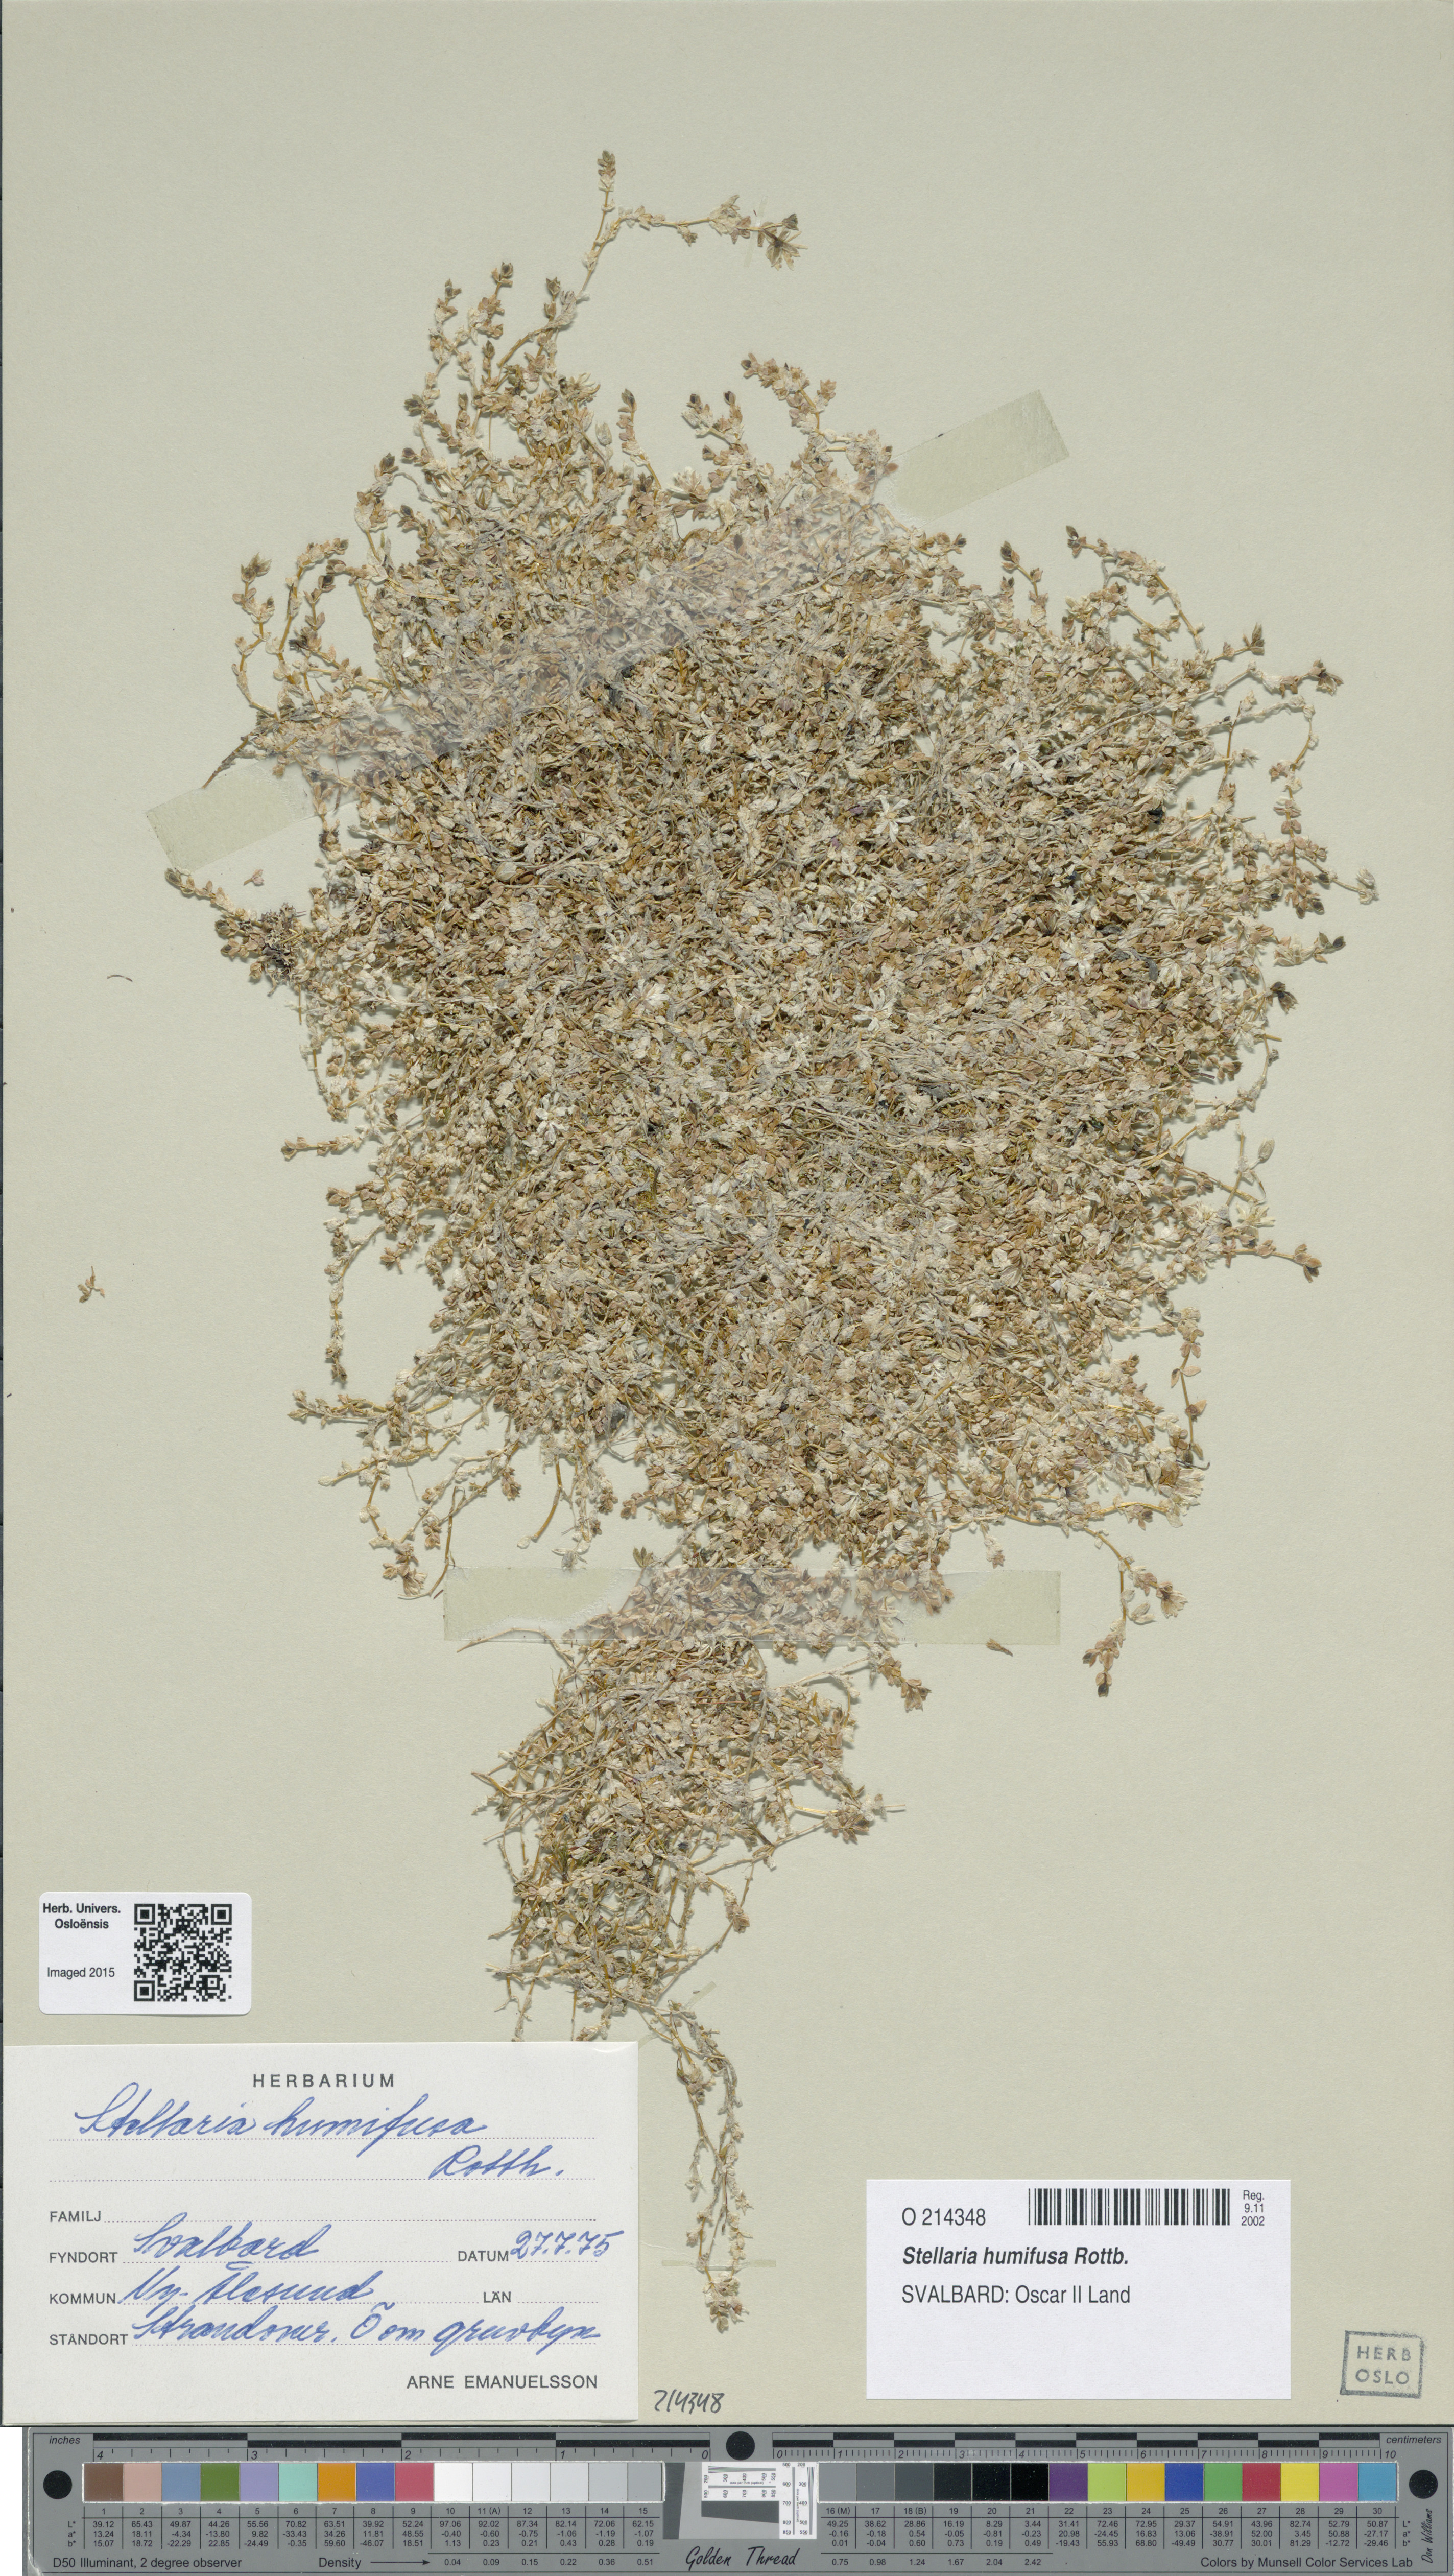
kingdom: Plantae
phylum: Tracheophyta
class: Magnoliopsida
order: Caryophyllales
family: Caryophyllaceae
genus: Stellaria
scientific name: Stellaria humifusa
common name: Creeping starwort
